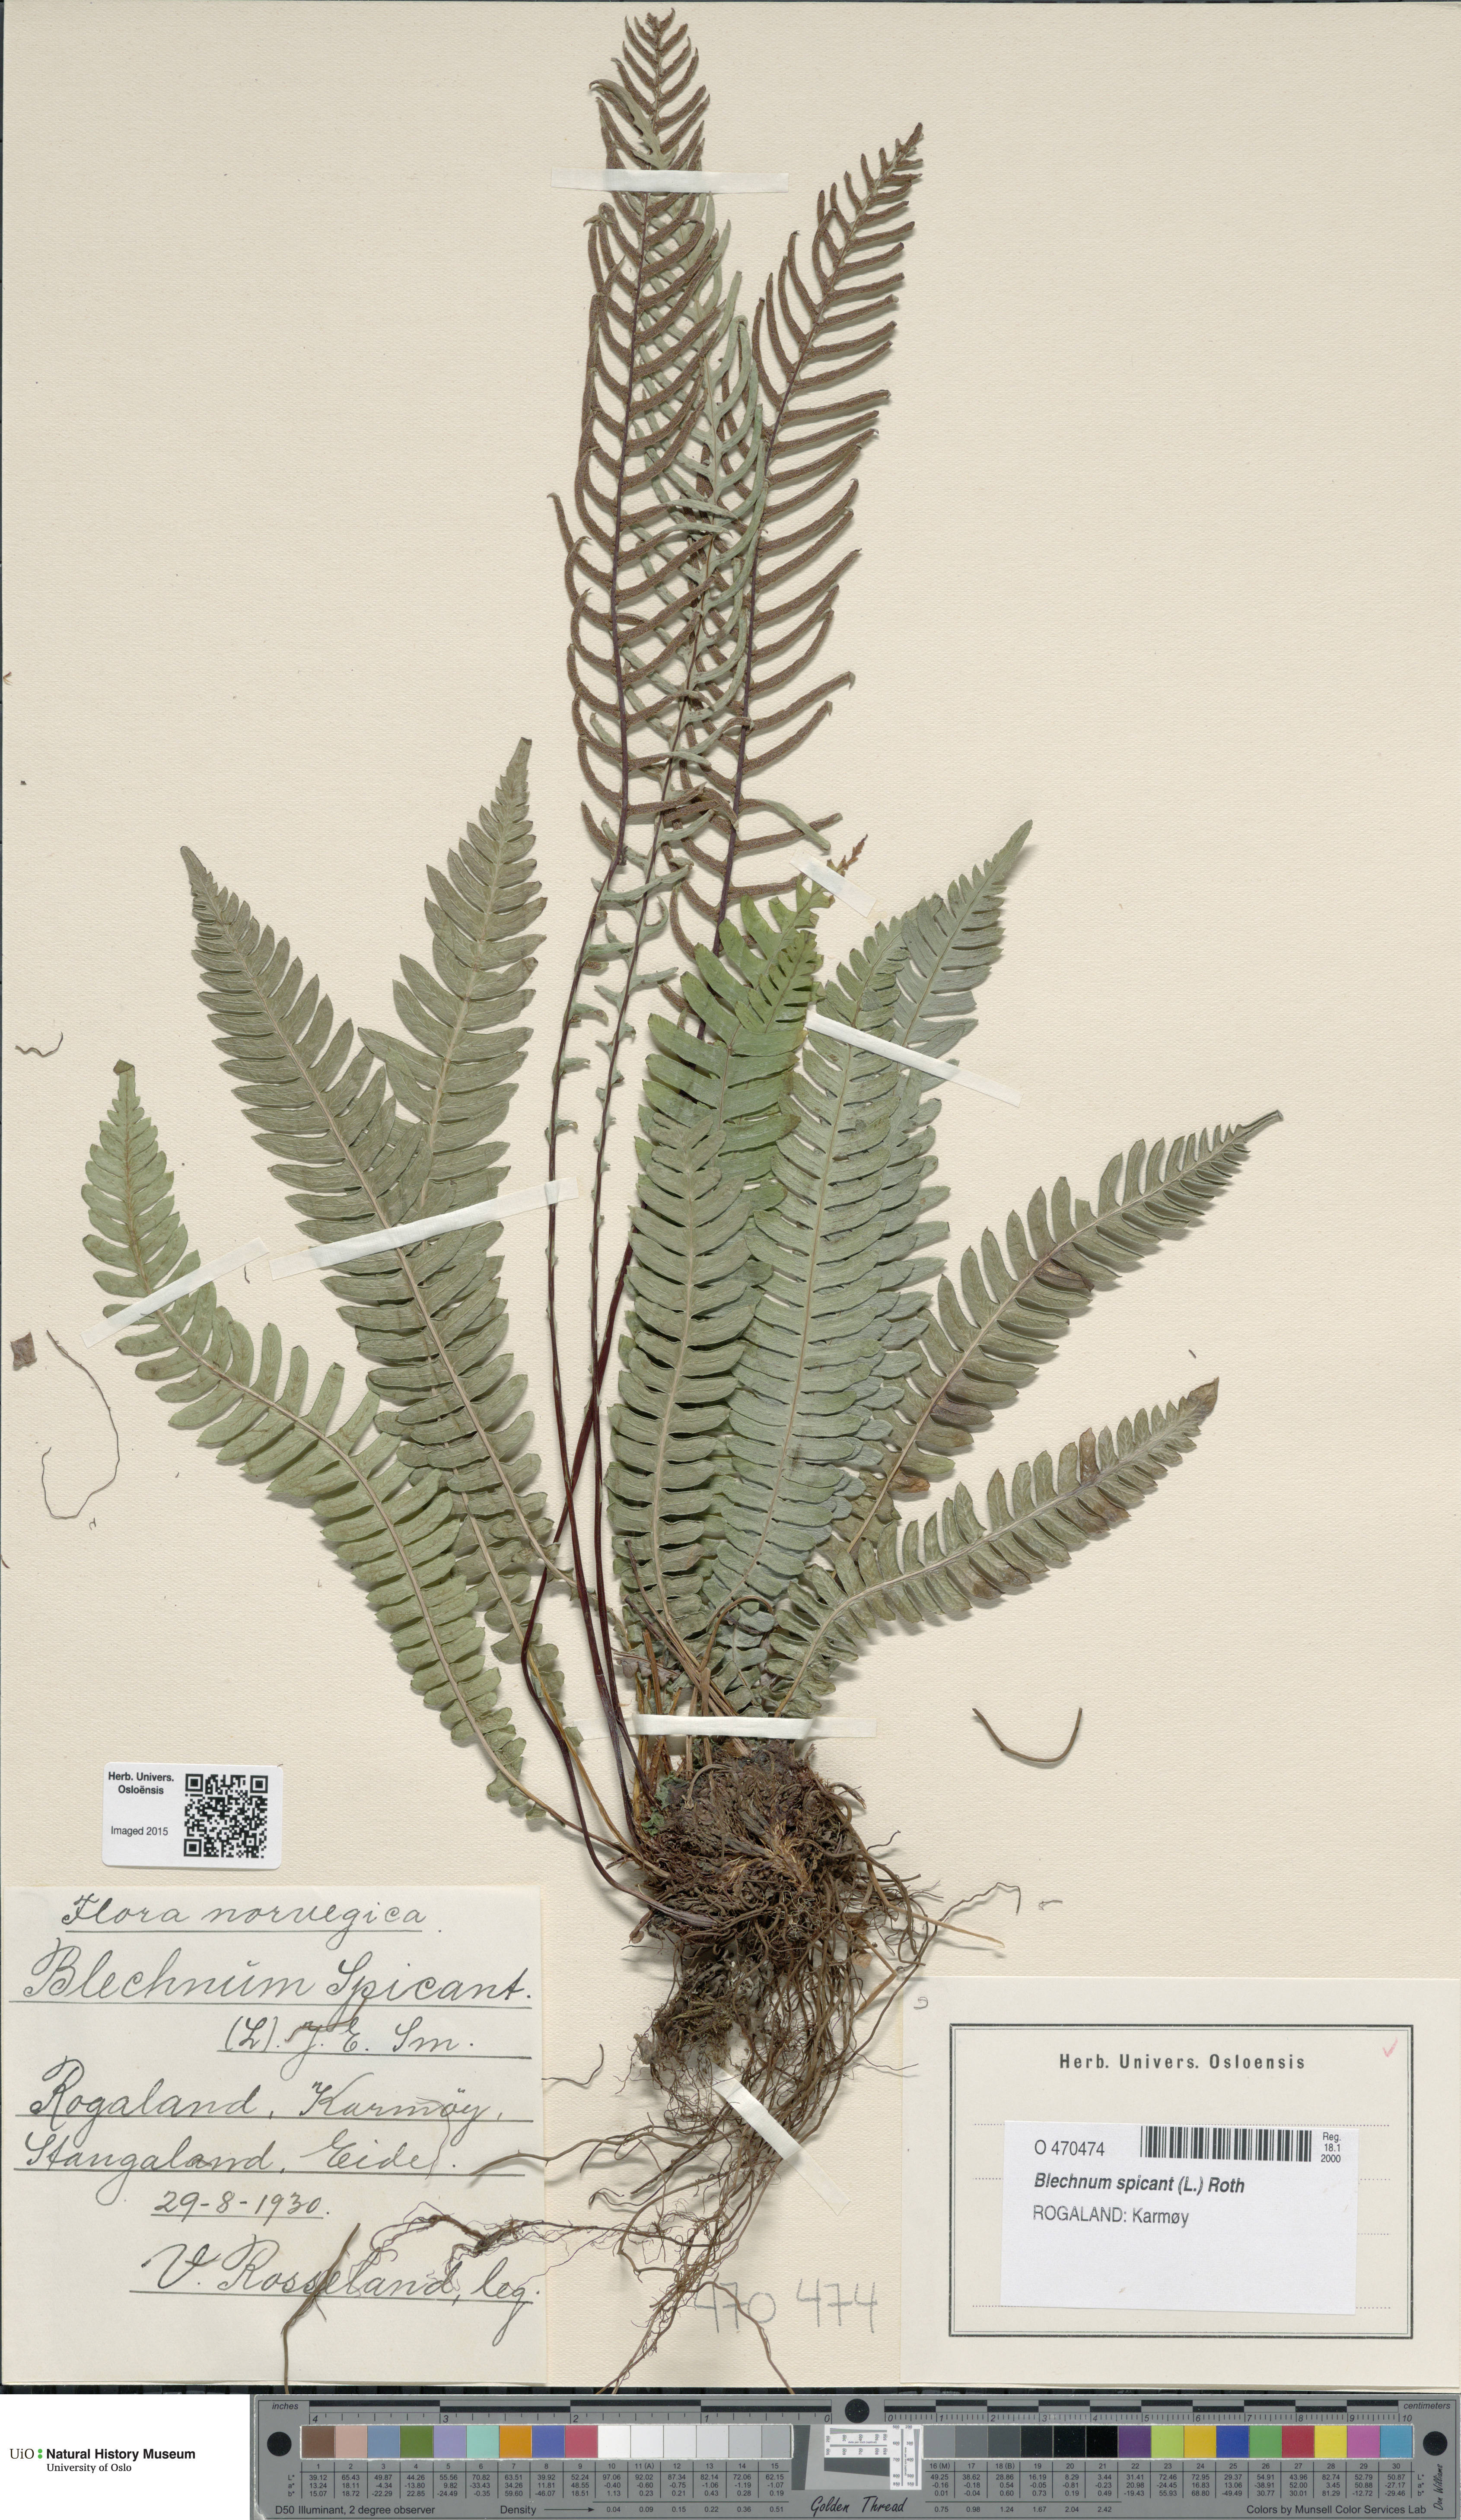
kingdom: Plantae
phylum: Tracheophyta
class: Polypodiopsida
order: Polypodiales
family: Blechnaceae
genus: Struthiopteris
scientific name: Struthiopteris spicant
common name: Deer fern
